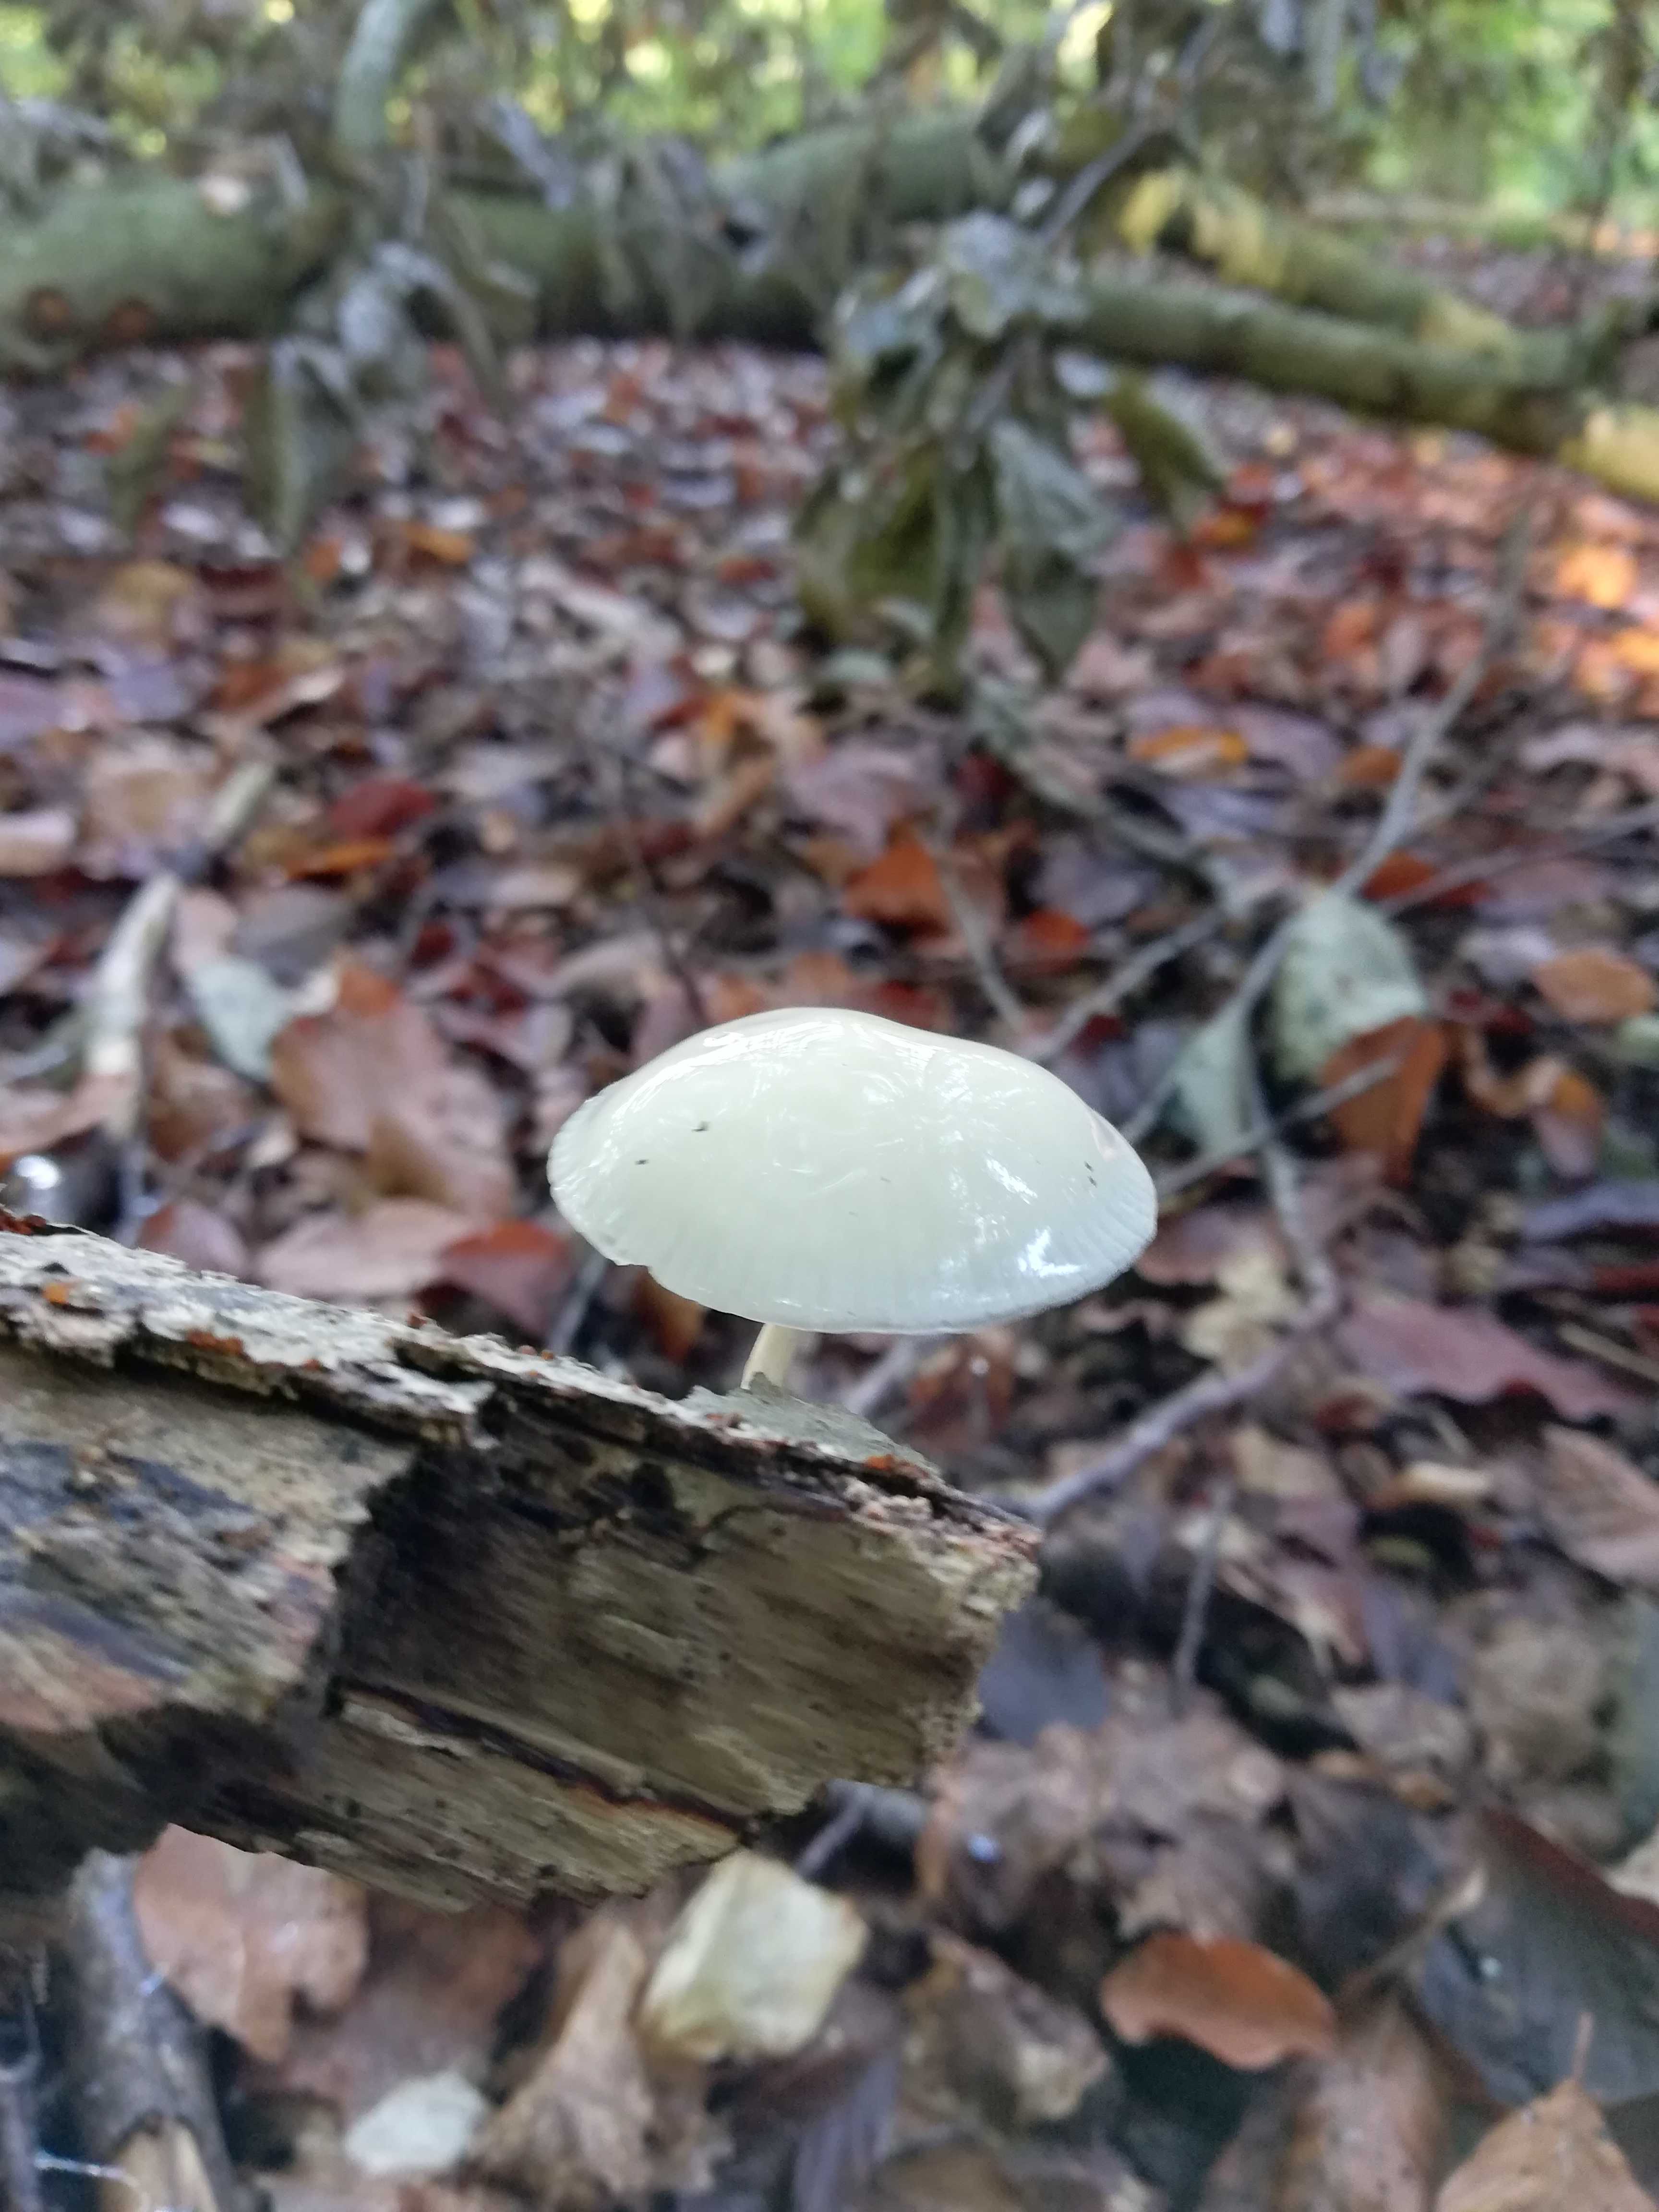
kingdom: Fungi
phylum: Basidiomycota
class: Agaricomycetes
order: Agaricales
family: Physalacriaceae
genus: Mucidula
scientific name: Mucidula mucida
